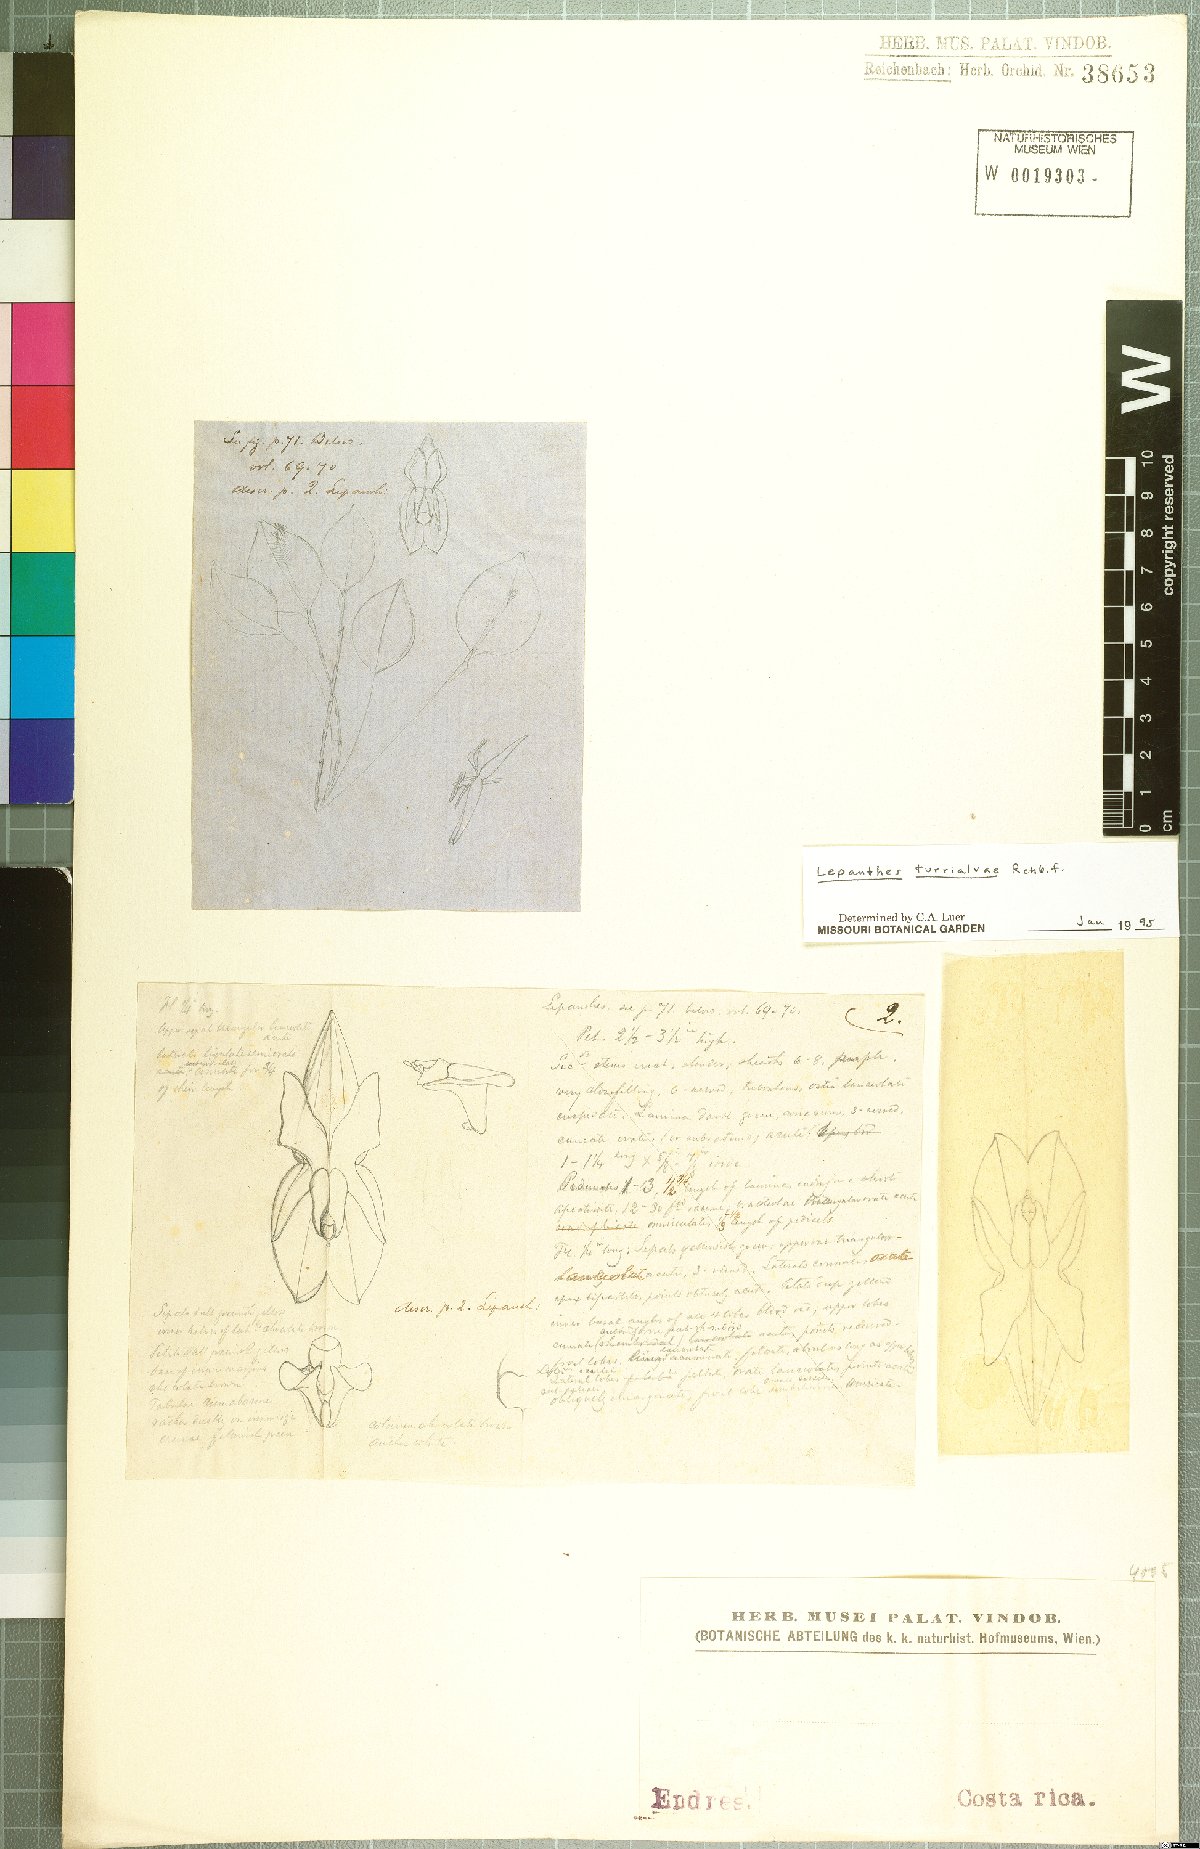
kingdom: Plantae
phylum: Tracheophyta
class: Liliopsida
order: Asparagales
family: Orchidaceae
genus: Lepanthes
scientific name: Lepanthes turialvae
